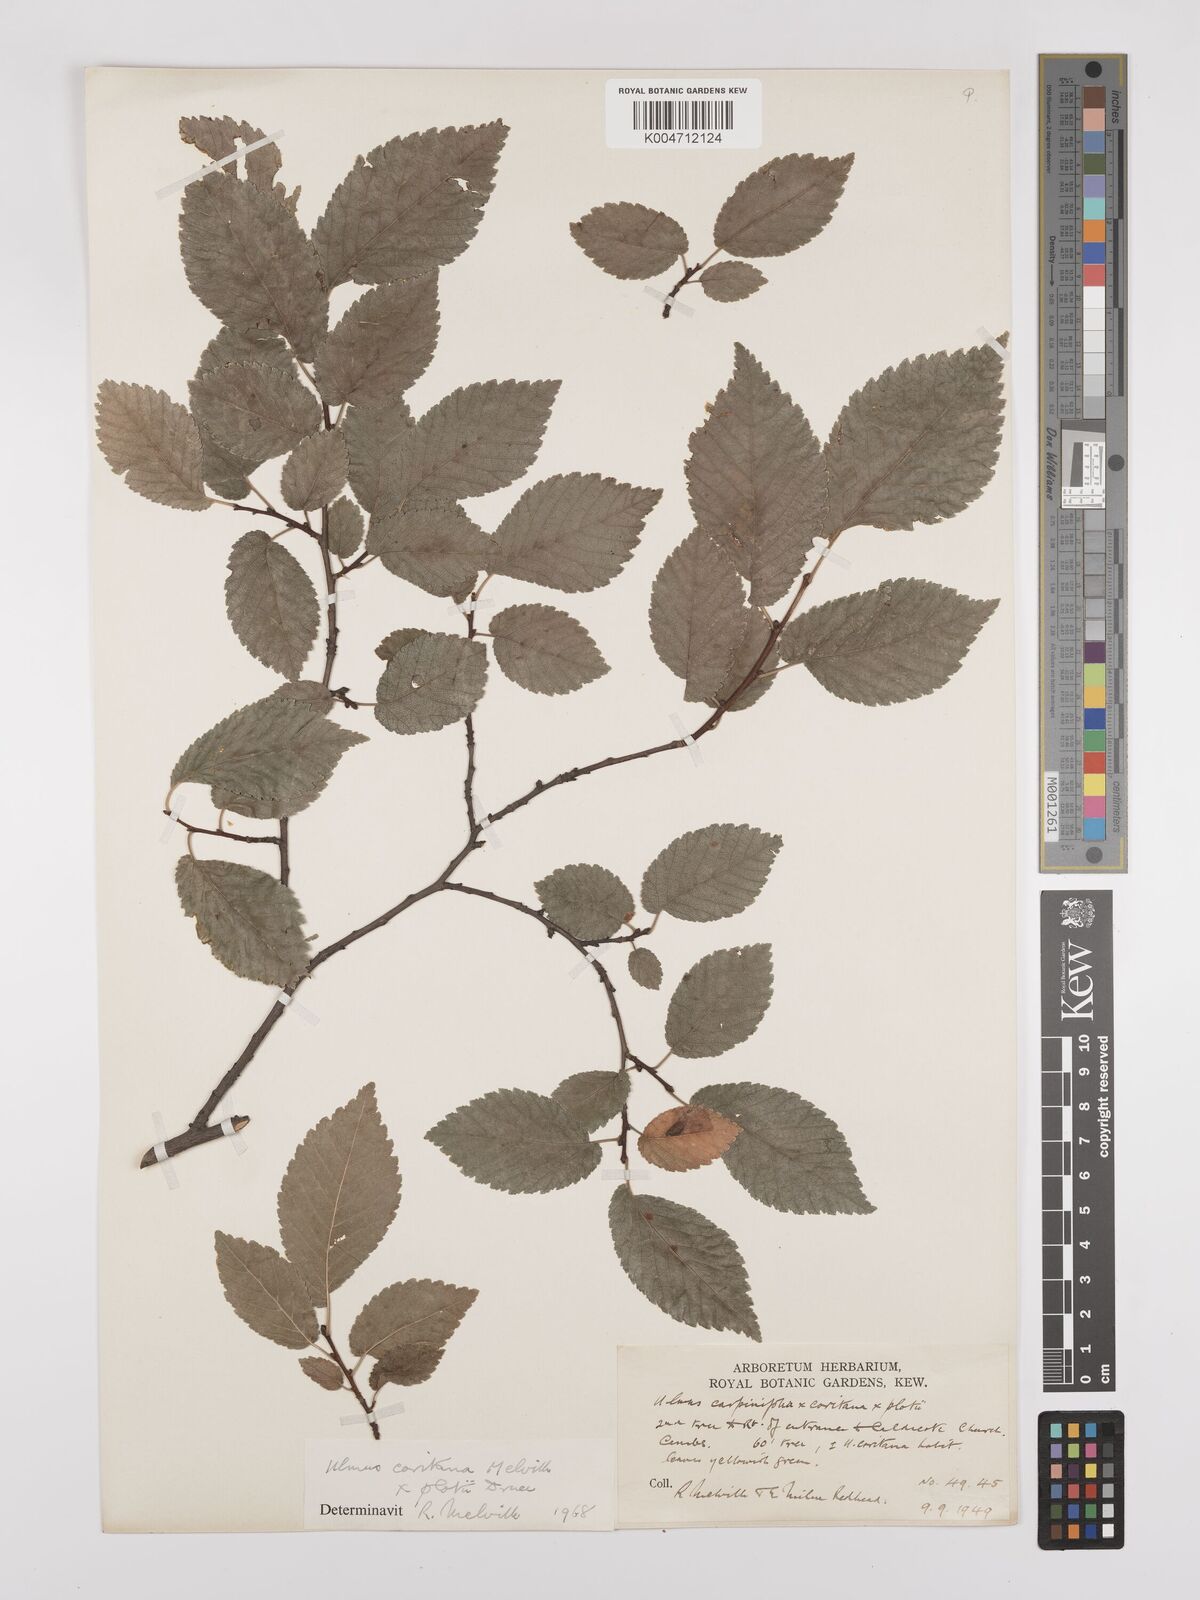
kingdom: Plantae
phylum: Tracheophyta
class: Magnoliopsida
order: Rosales
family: Ulmaceae
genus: Ulmus
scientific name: Ulmus minor
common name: Small-leaved elm
